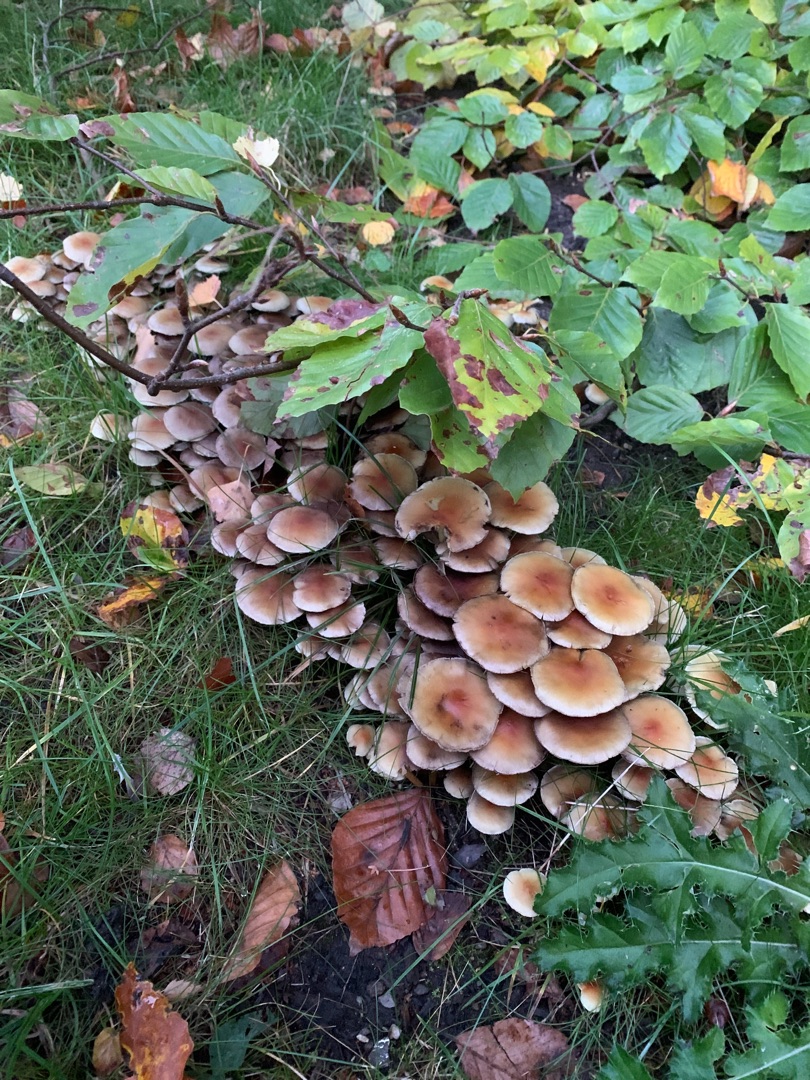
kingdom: Fungi
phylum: Basidiomycota
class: Agaricomycetes
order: Agaricales
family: Strophariaceae
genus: Hypholoma
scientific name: Hypholoma fasciculare
